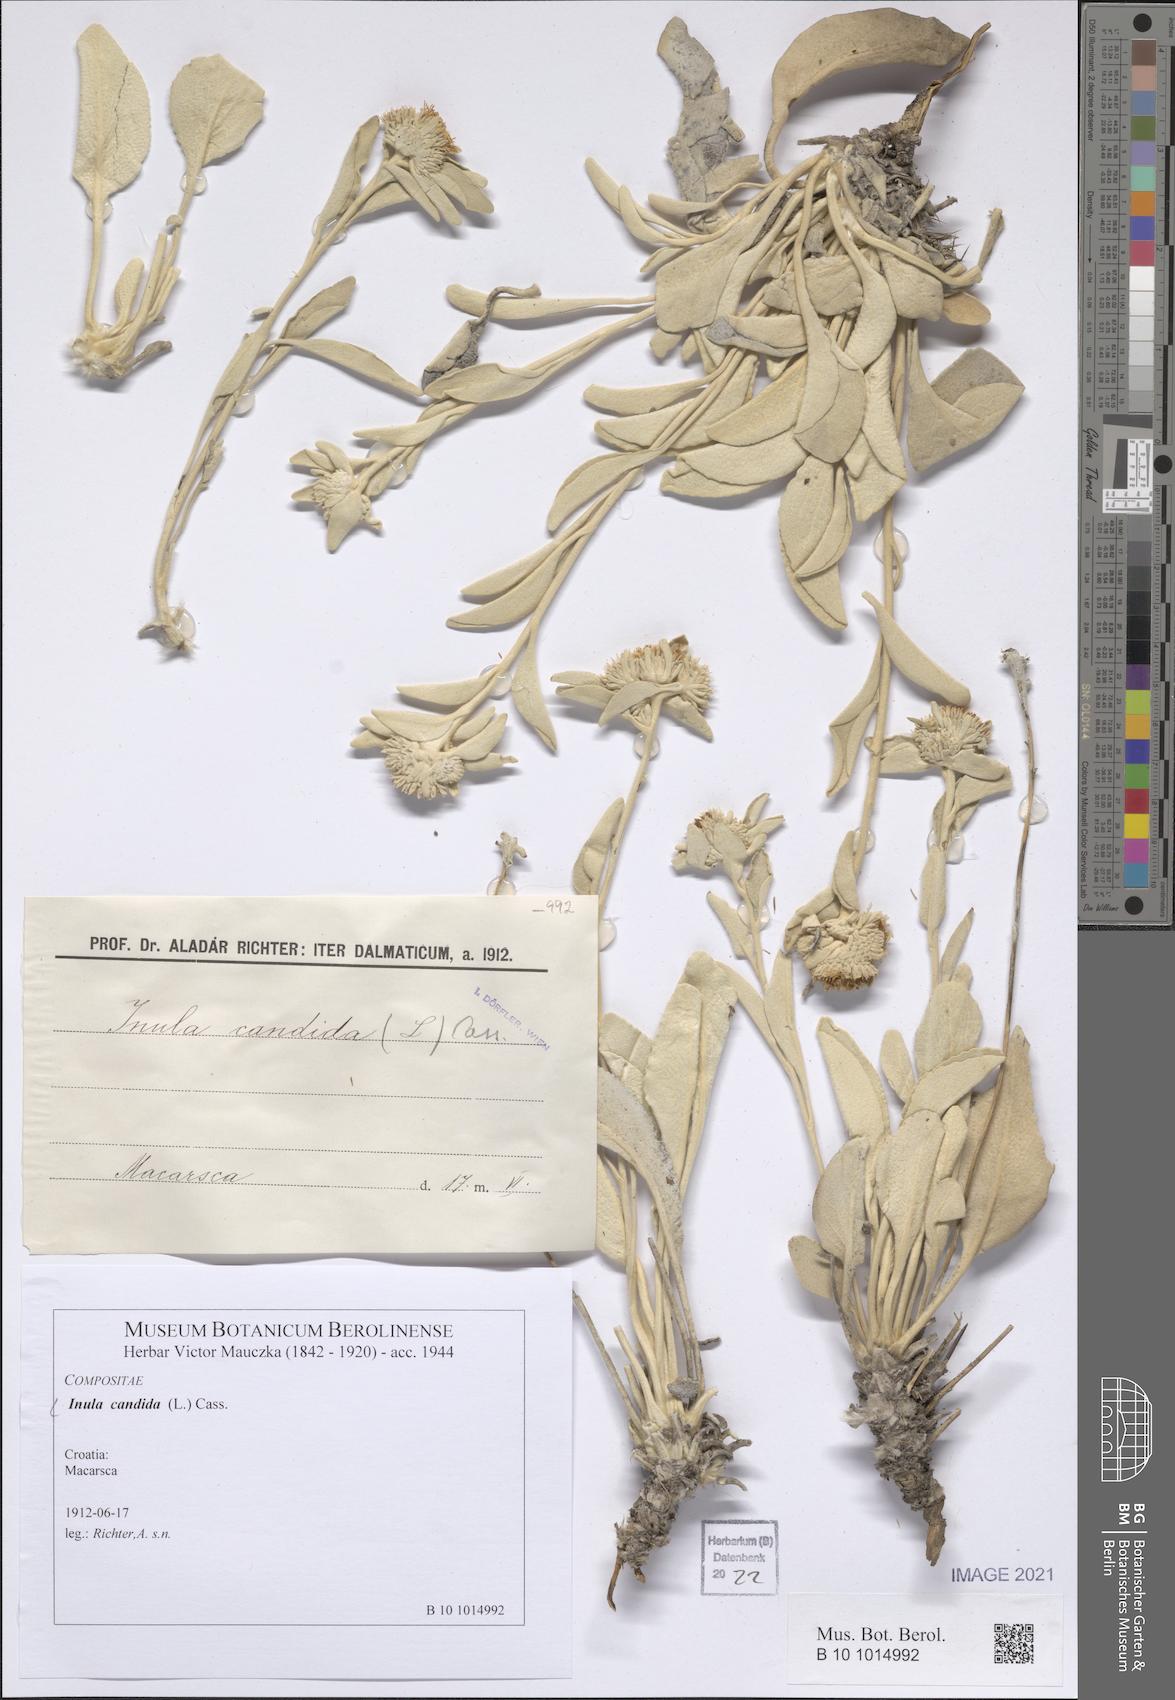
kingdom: Plantae
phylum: Tracheophyta
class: Magnoliopsida
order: Asterales
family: Asteraceae
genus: Inula
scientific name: Inula candida
